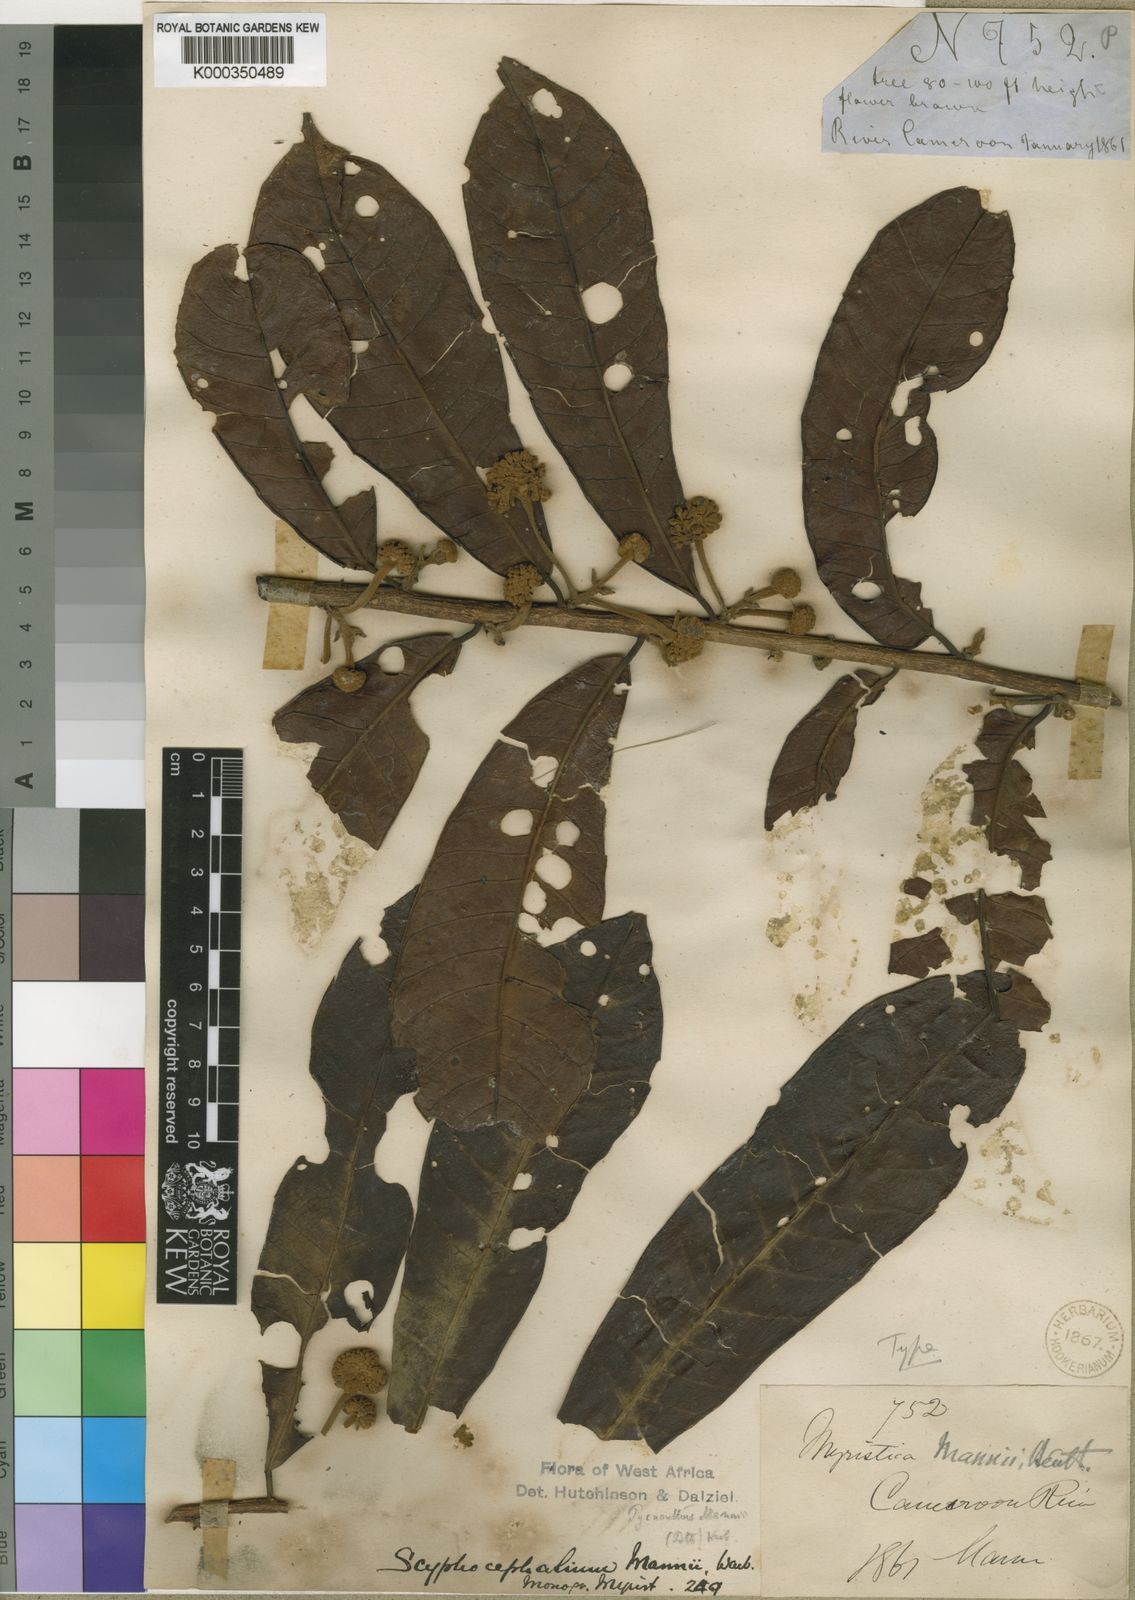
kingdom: Plantae
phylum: Tracheophyta
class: Magnoliopsida
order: Magnoliales
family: Myristicaceae
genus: Scyphocephalum
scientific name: Scyphocephalum mannii
